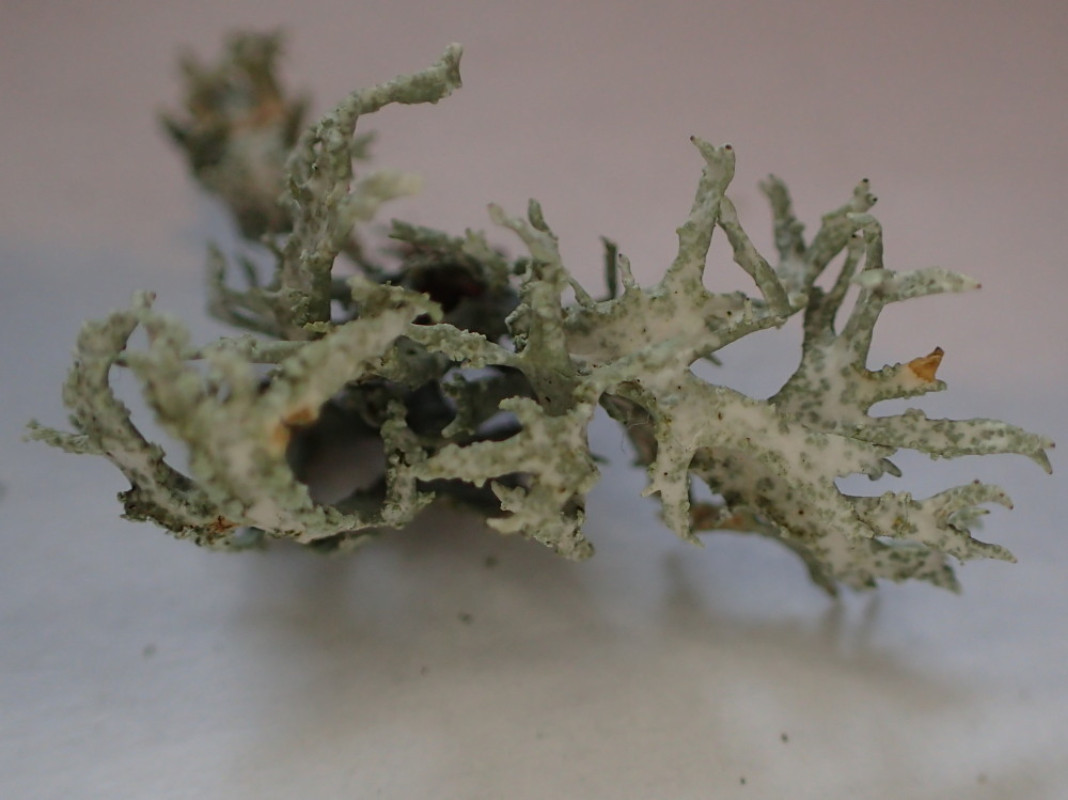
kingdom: Fungi
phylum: Ascomycota
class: Lecanoromycetes
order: Lecanorales
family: Parmeliaceae
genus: Evernia
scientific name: Evernia prunastri
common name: almindelig slåenlav
